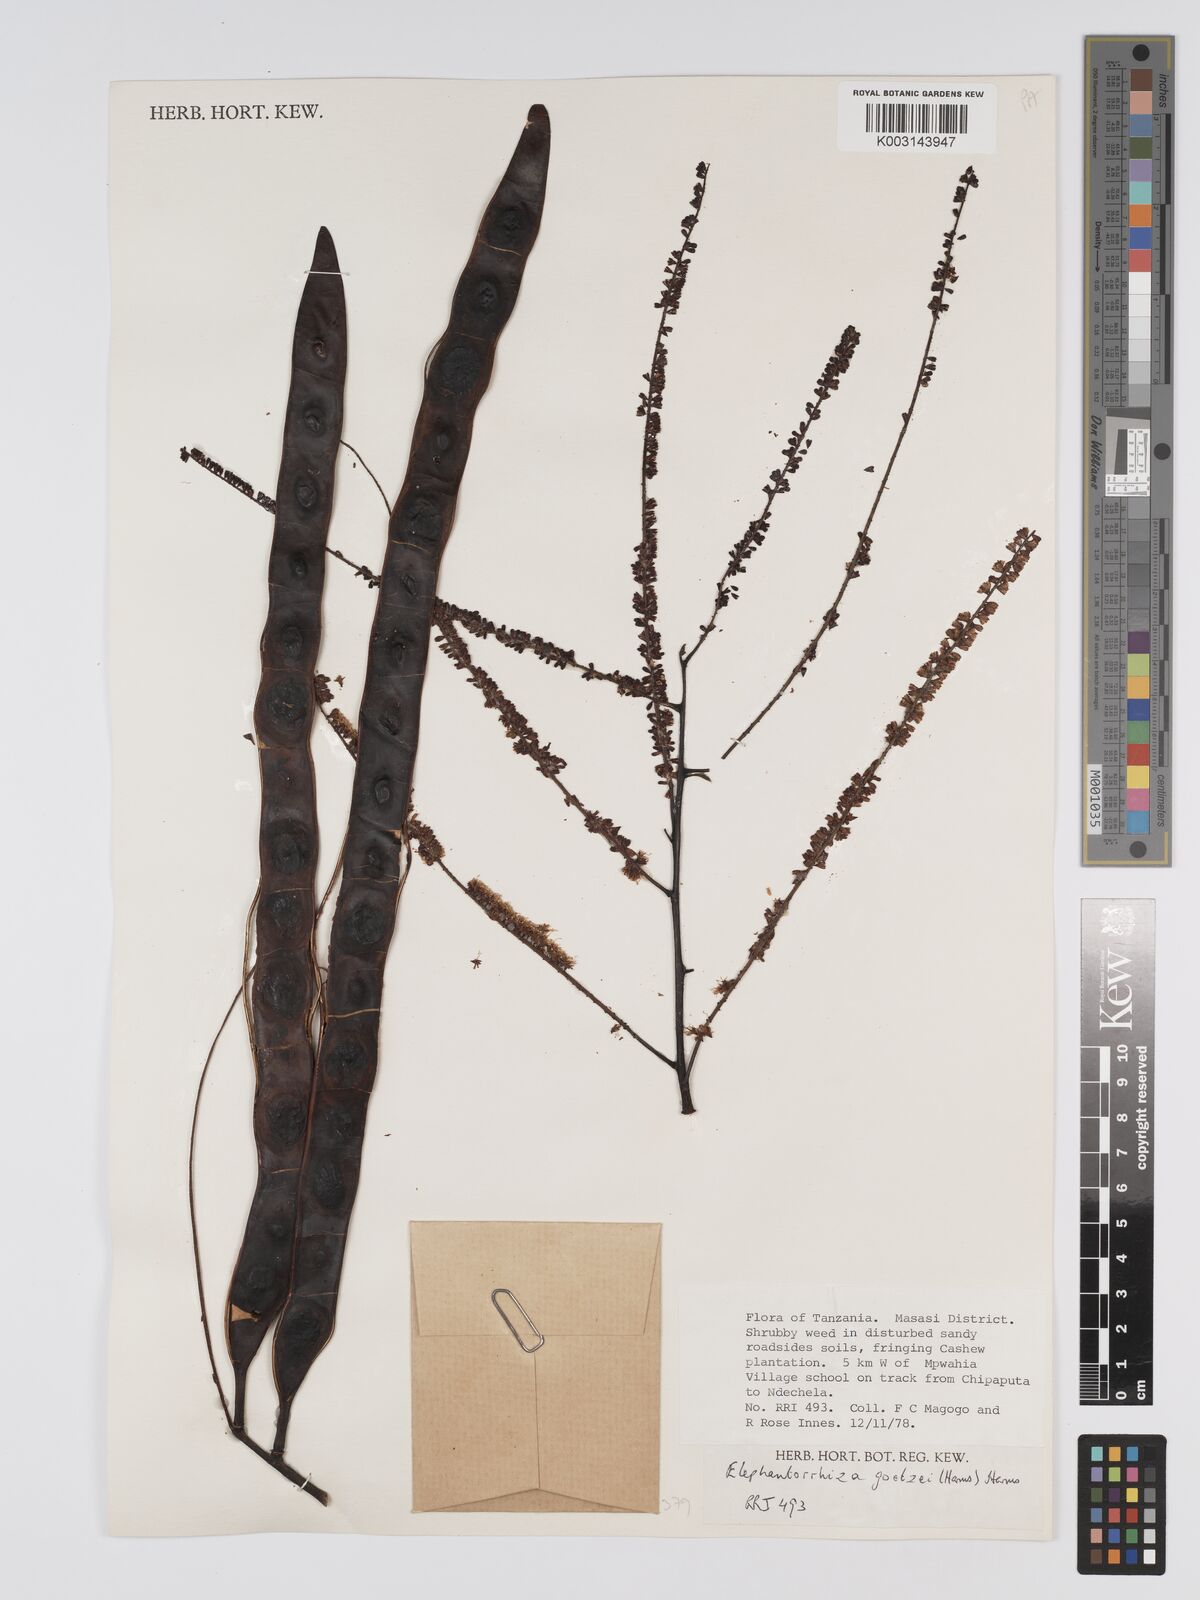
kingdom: Plantae
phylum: Tracheophyta
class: Magnoliopsida
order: Fabales
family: Fabaceae
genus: Elephantorrhiza
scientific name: Elephantorrhiza goetzei
